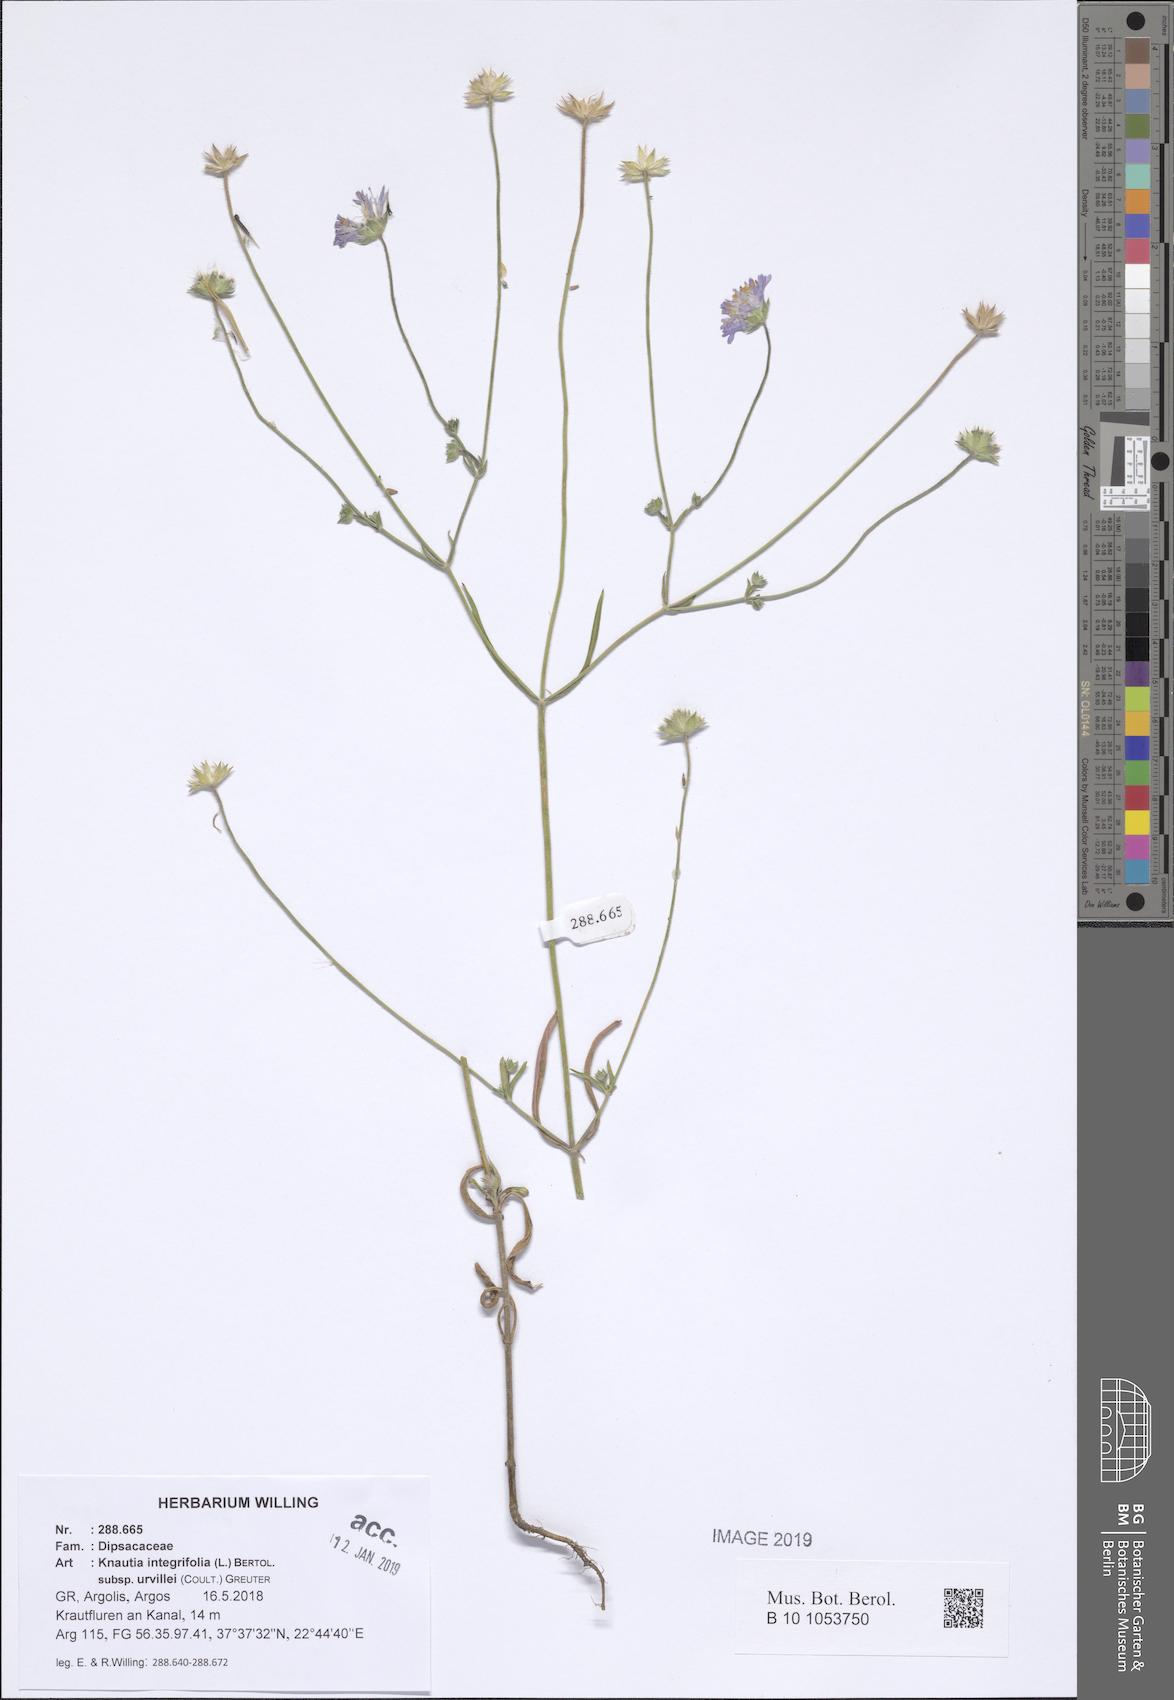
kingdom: Plantae
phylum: Tracheophyta
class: Magnoliopsida
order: Dipsacales
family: Caprifoliaceae
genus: Knautia
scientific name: Knautia integrifolia
